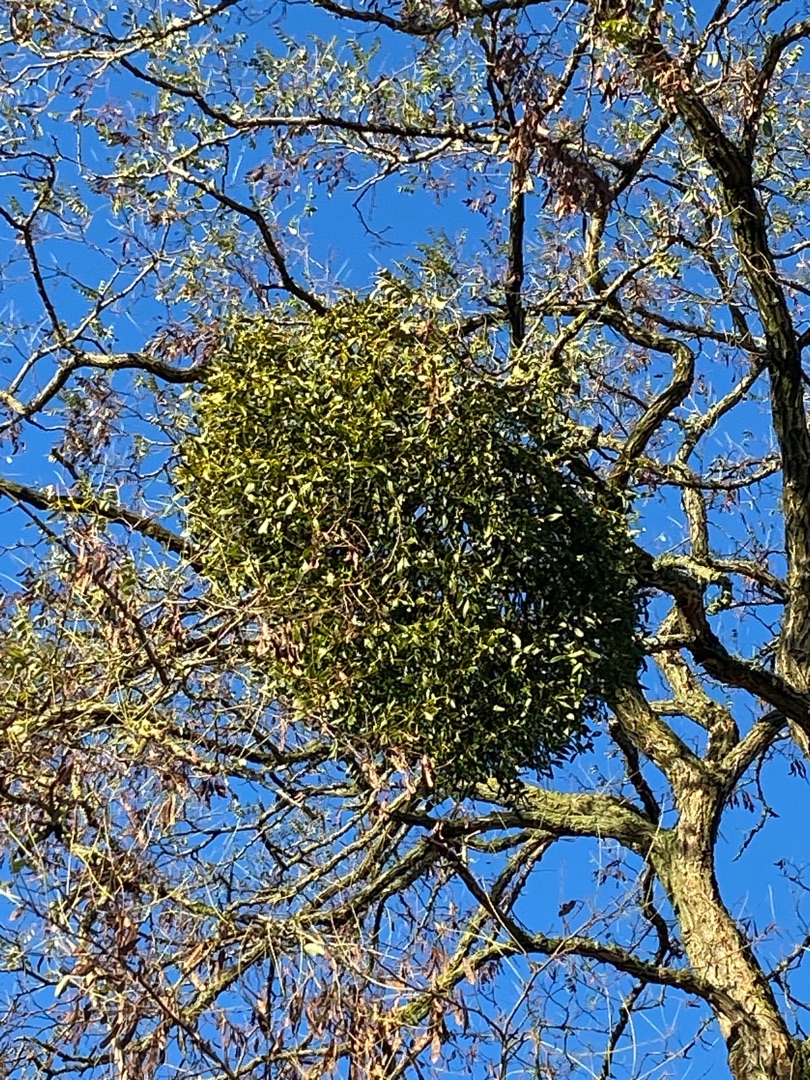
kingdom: Plantae
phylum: Tracheophyta
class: Magnoliopsida
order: Santalales
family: Viscaceae
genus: Viscum
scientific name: Viscum album
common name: Mistelten
